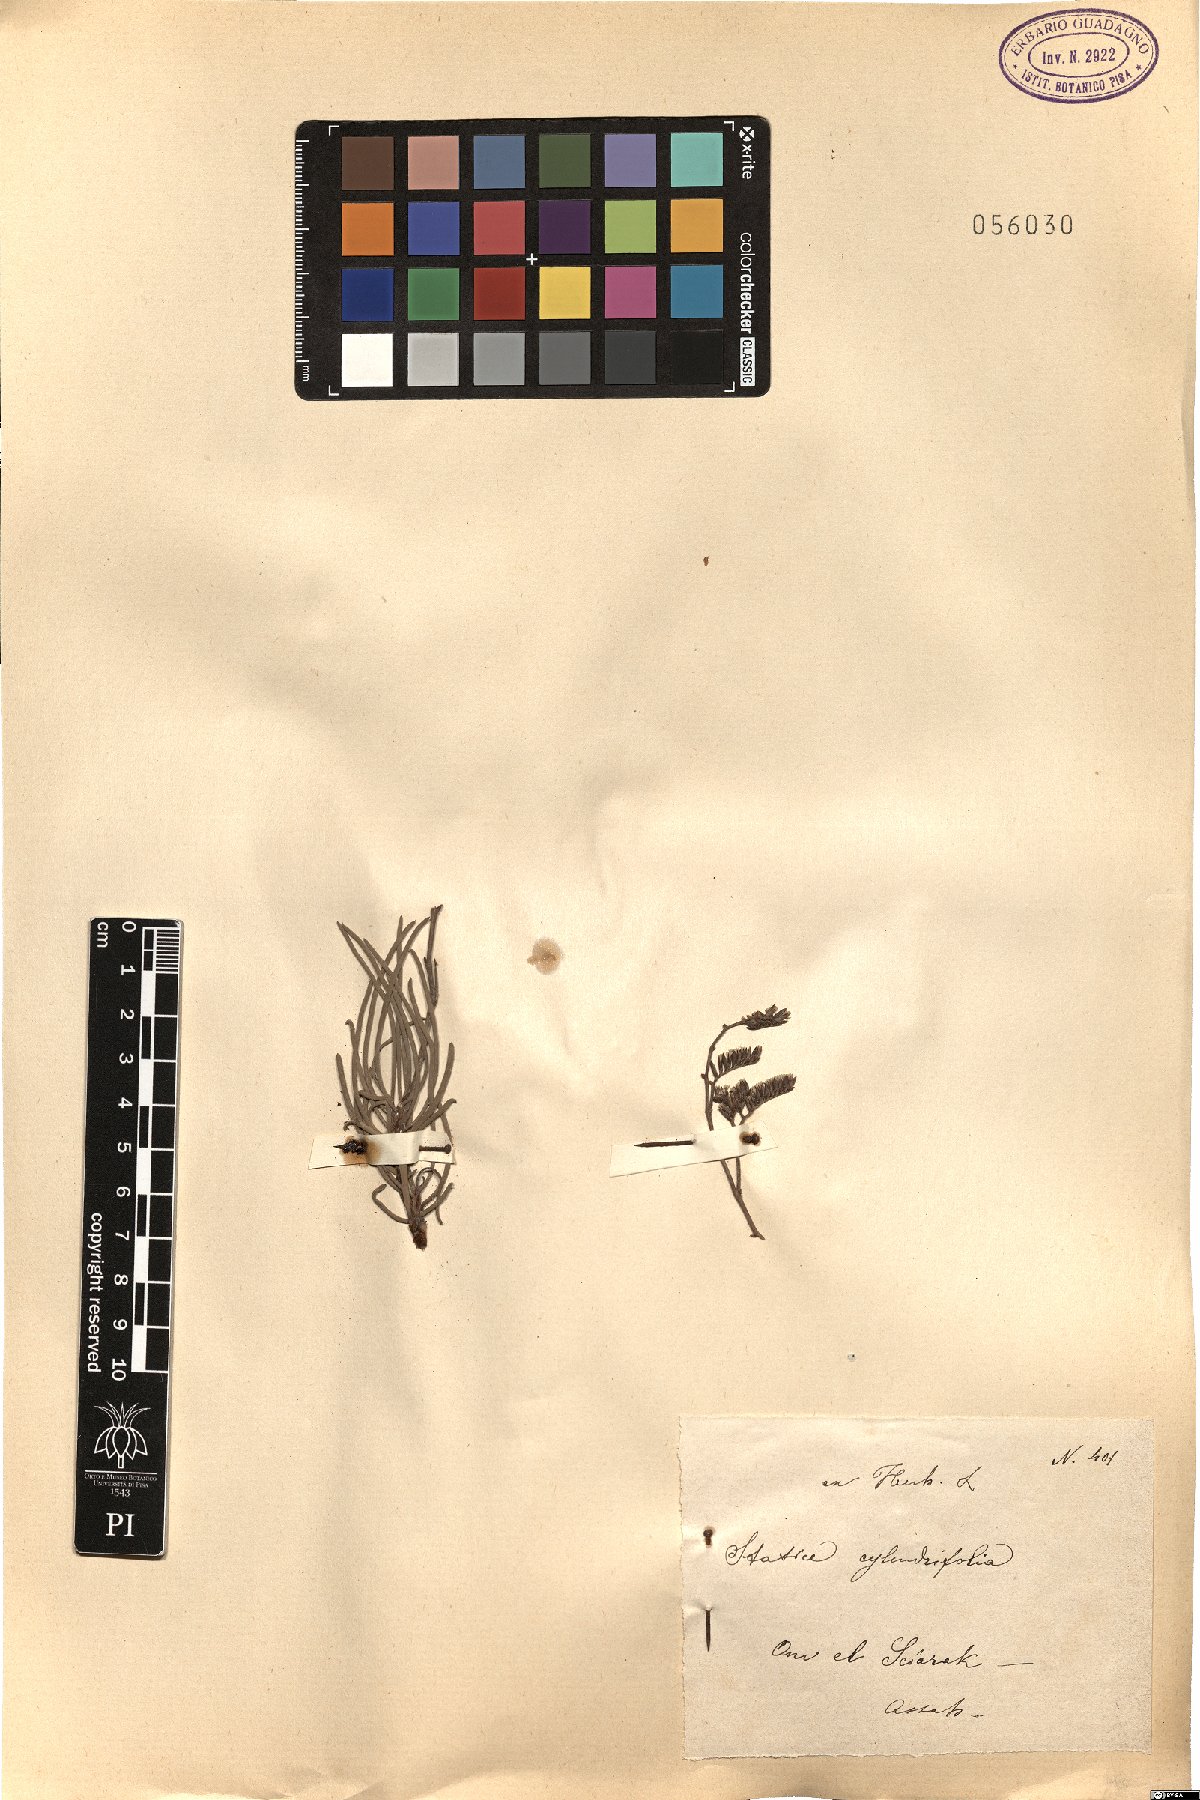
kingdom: Plantae
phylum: Tracheophyta
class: Magnoliopsida
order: Caryophyllales
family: Plumbaginaceae
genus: Limonium
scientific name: Limonium cylindrifolium
